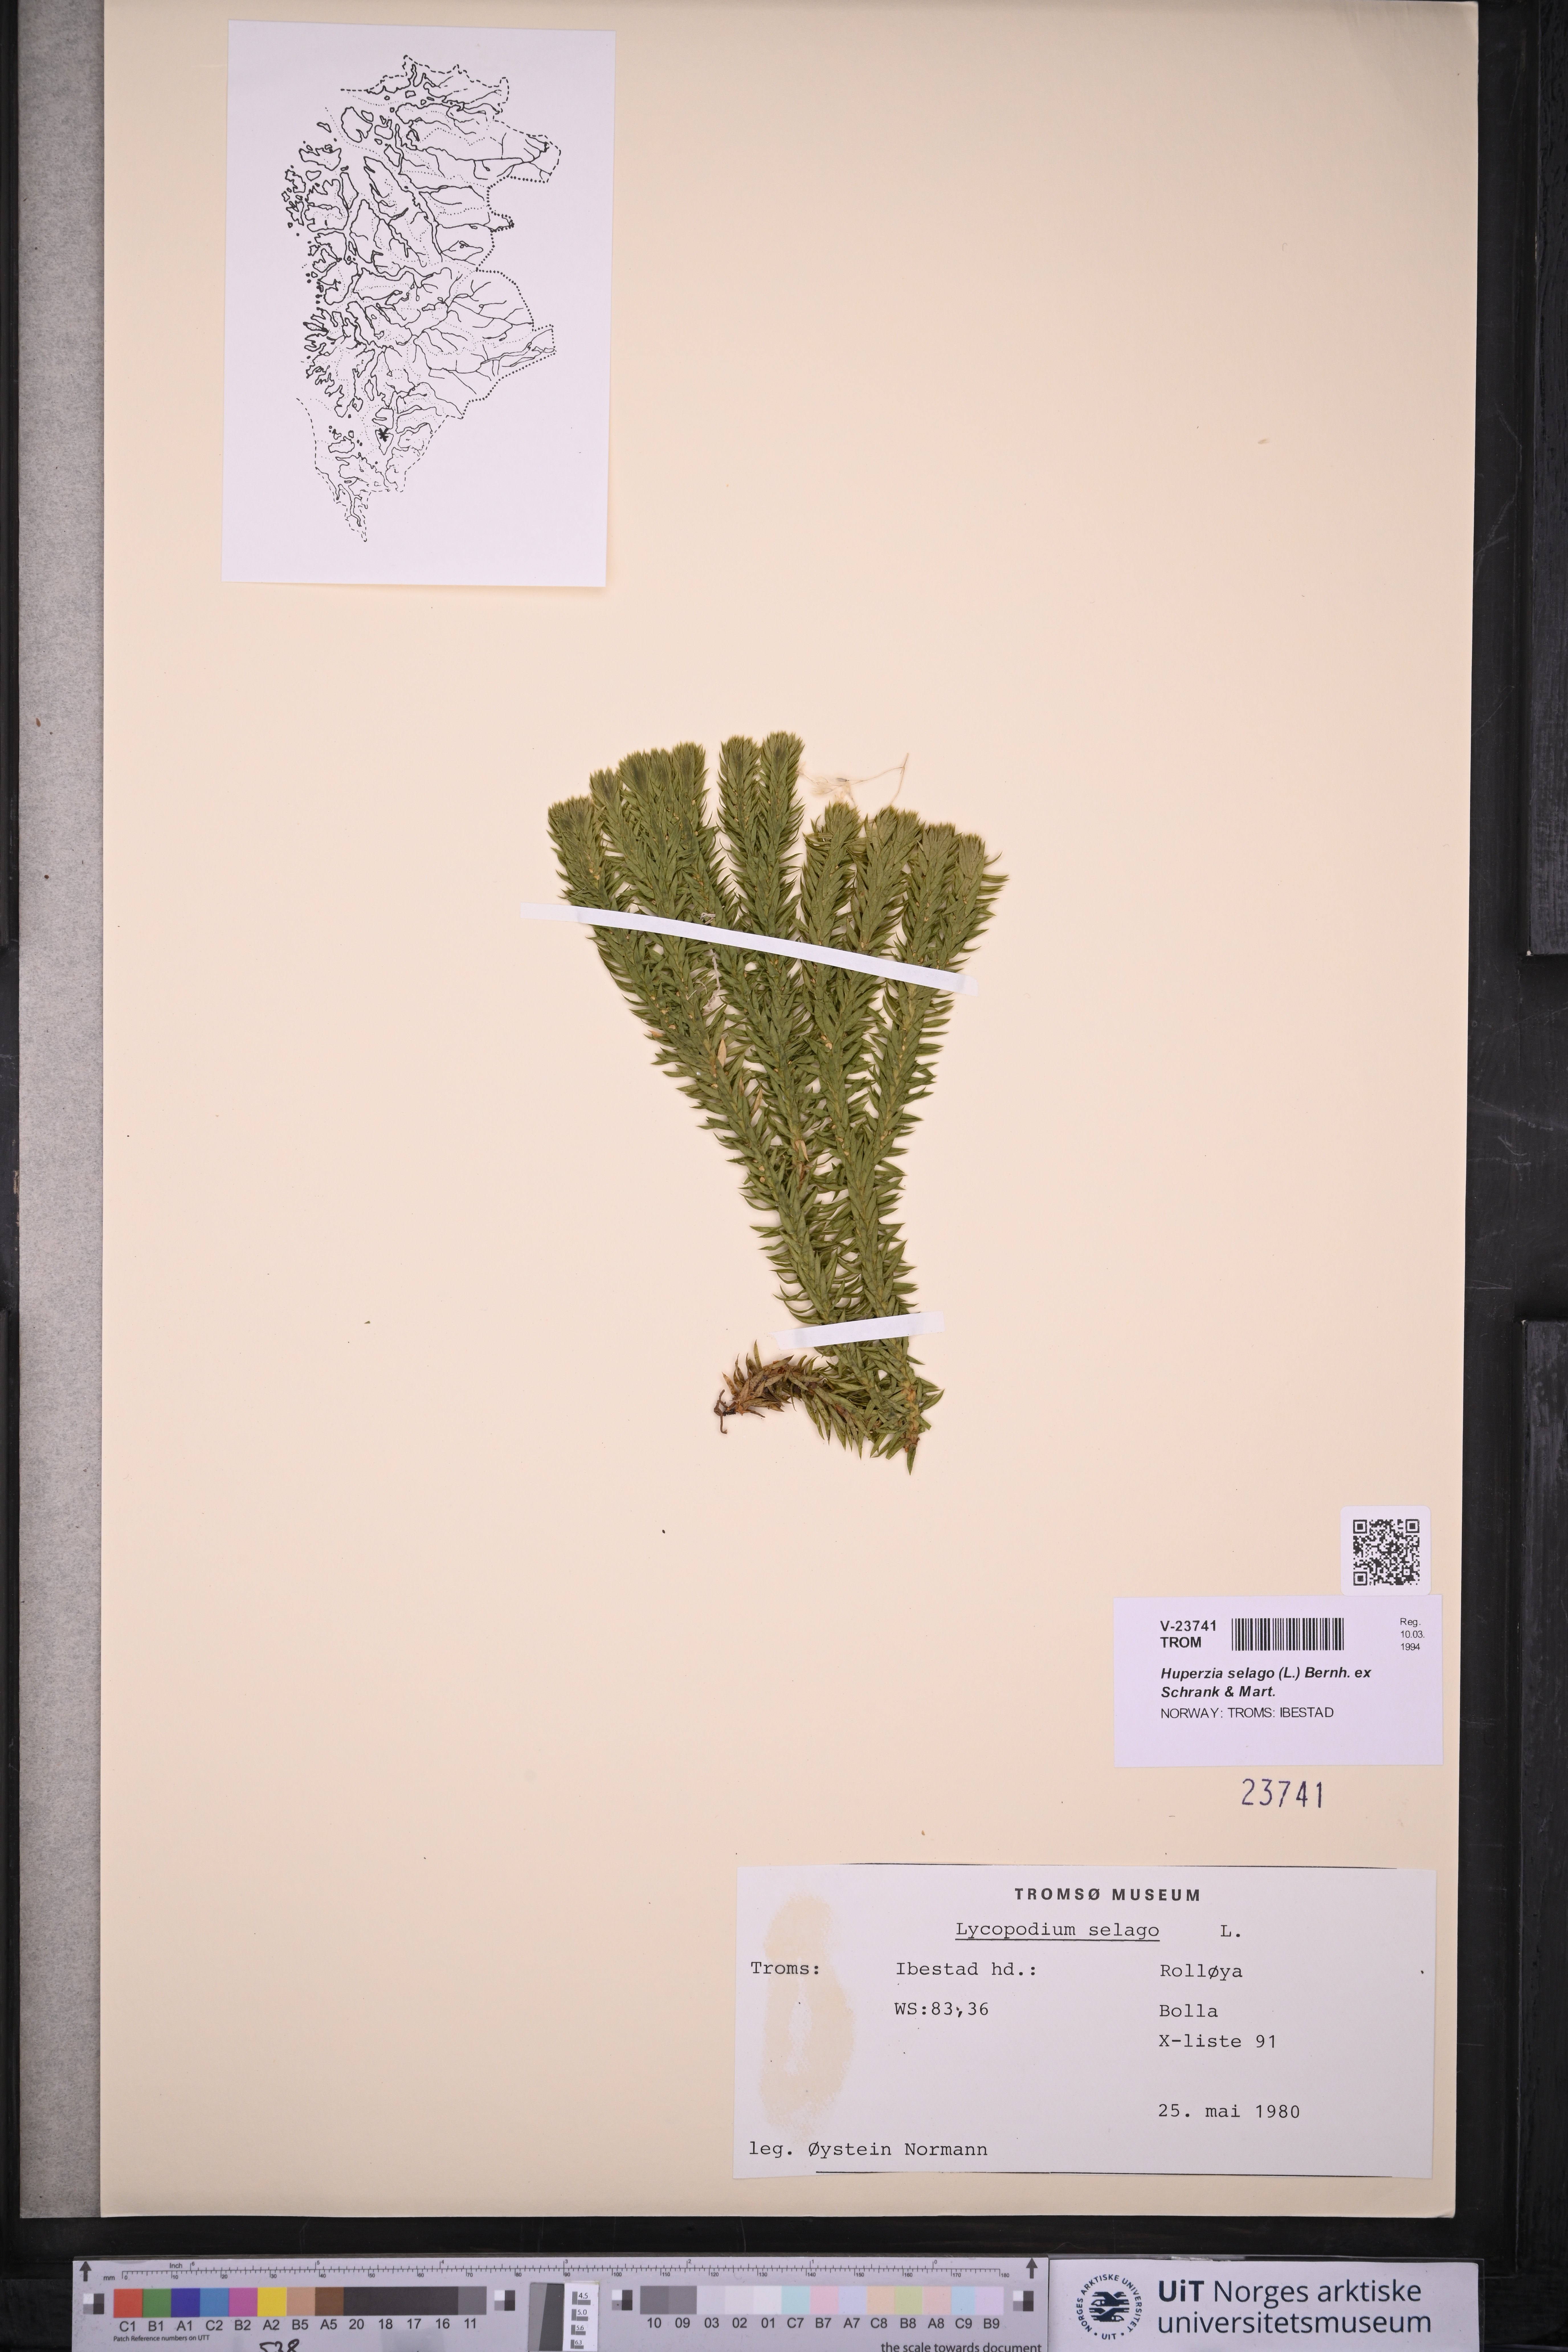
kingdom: Plantae
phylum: Tracheophyta
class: Lycopodiopsida
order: Lycopodiales
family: Lycopodiaceae
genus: Huperzia
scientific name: Huperzia selago
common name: Northern firmoss
